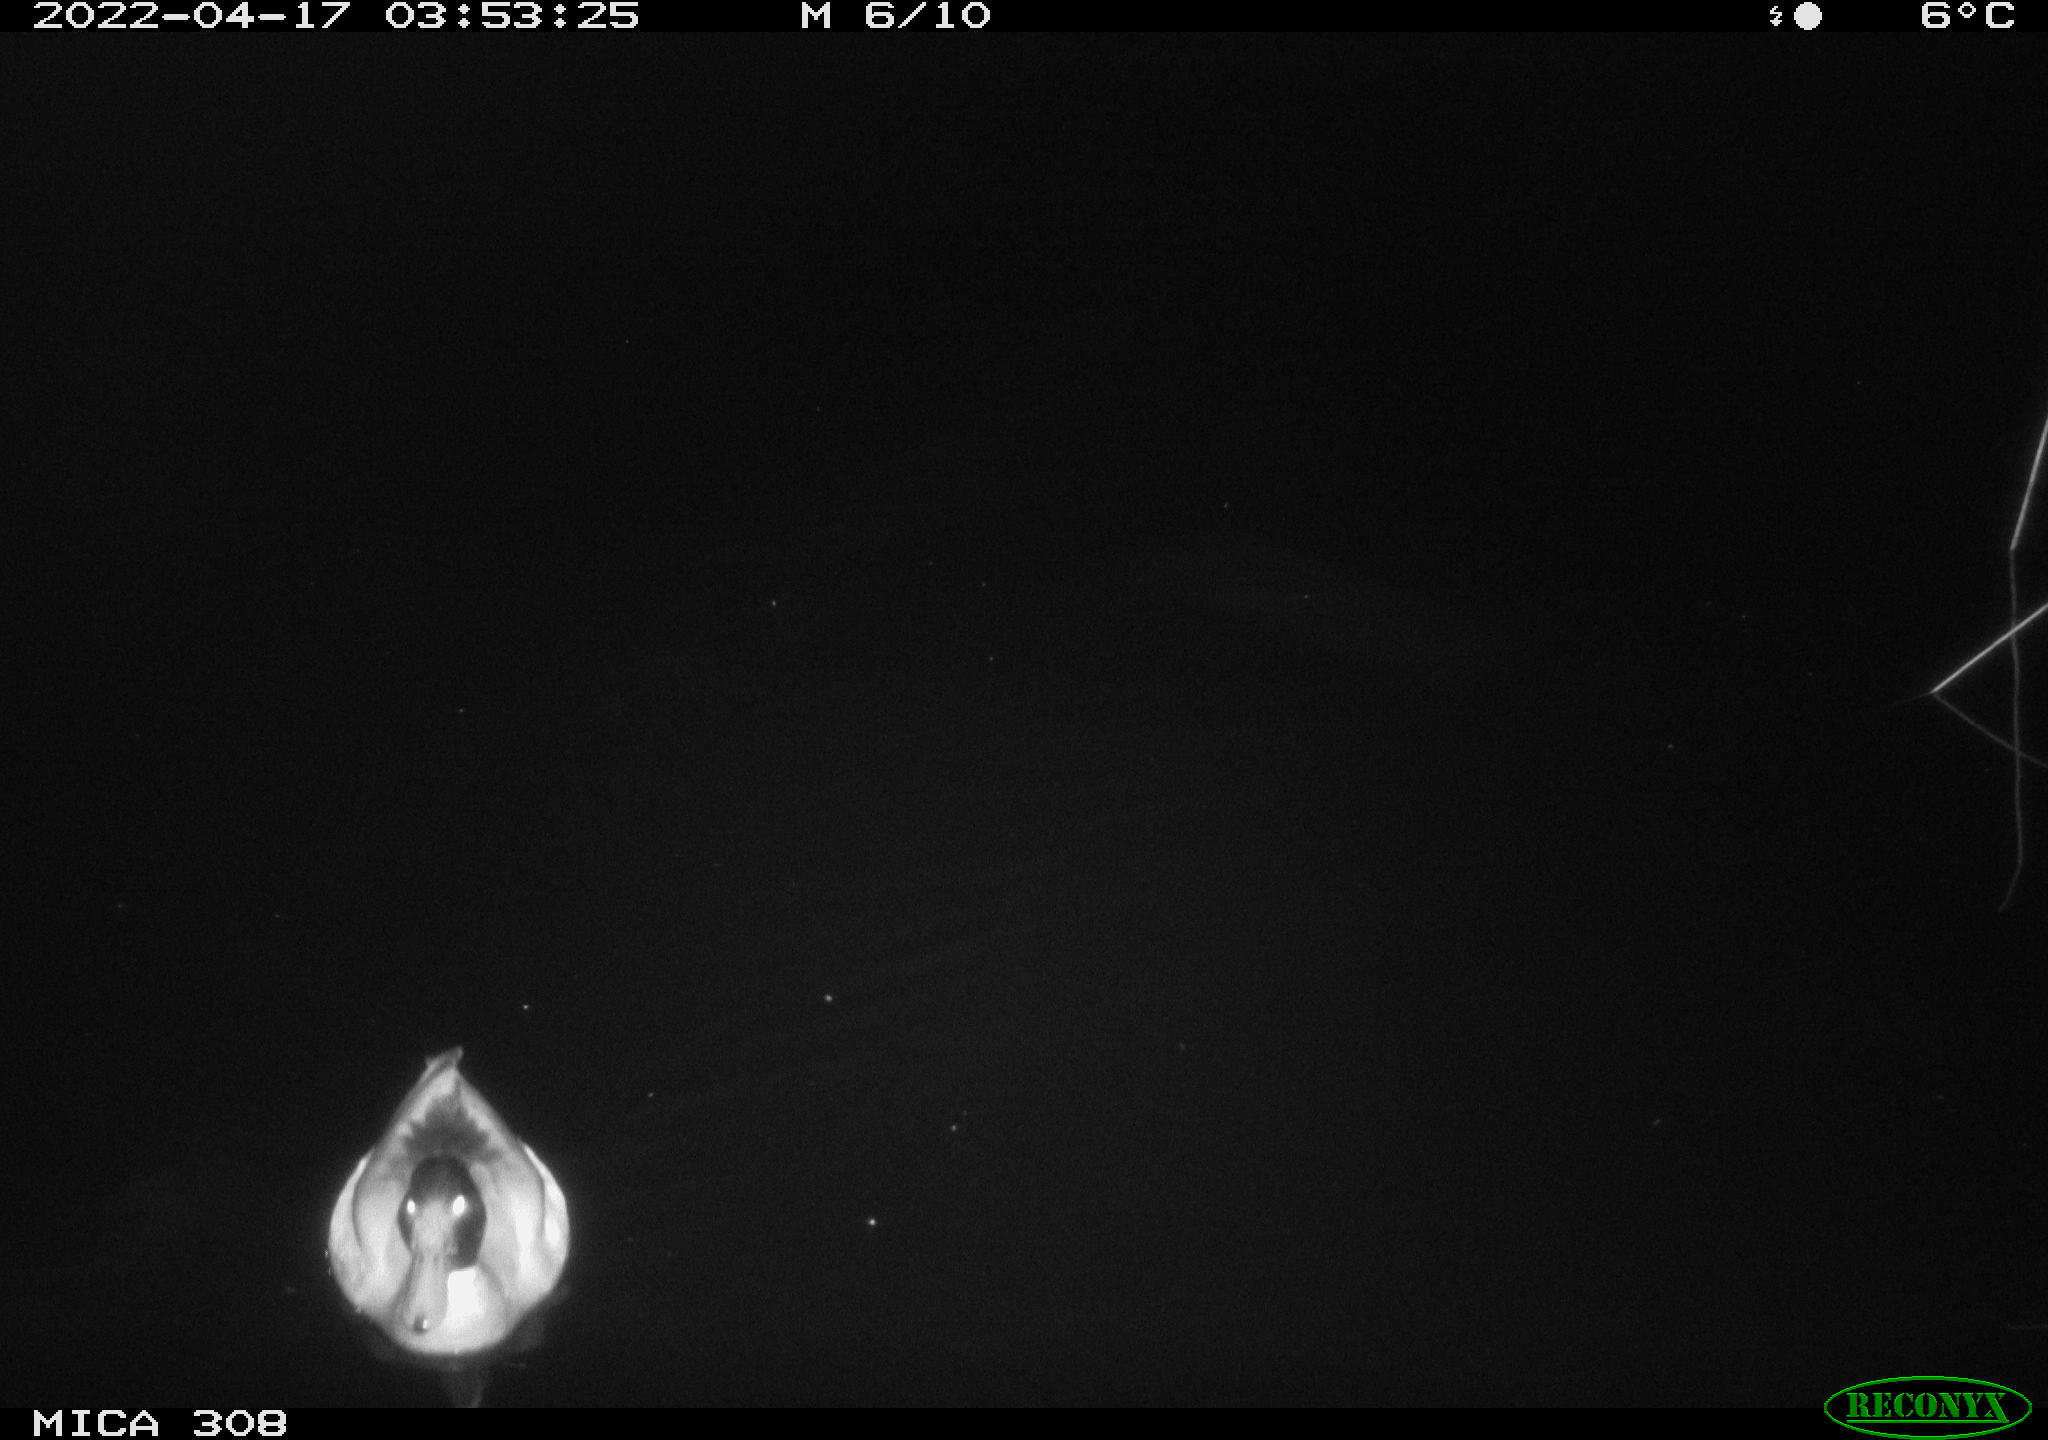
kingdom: Animalia
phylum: Chordata
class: Aves
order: Anseriformes
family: Anatidae
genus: Anas
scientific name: Anas platyrhynchos
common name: Mallard
